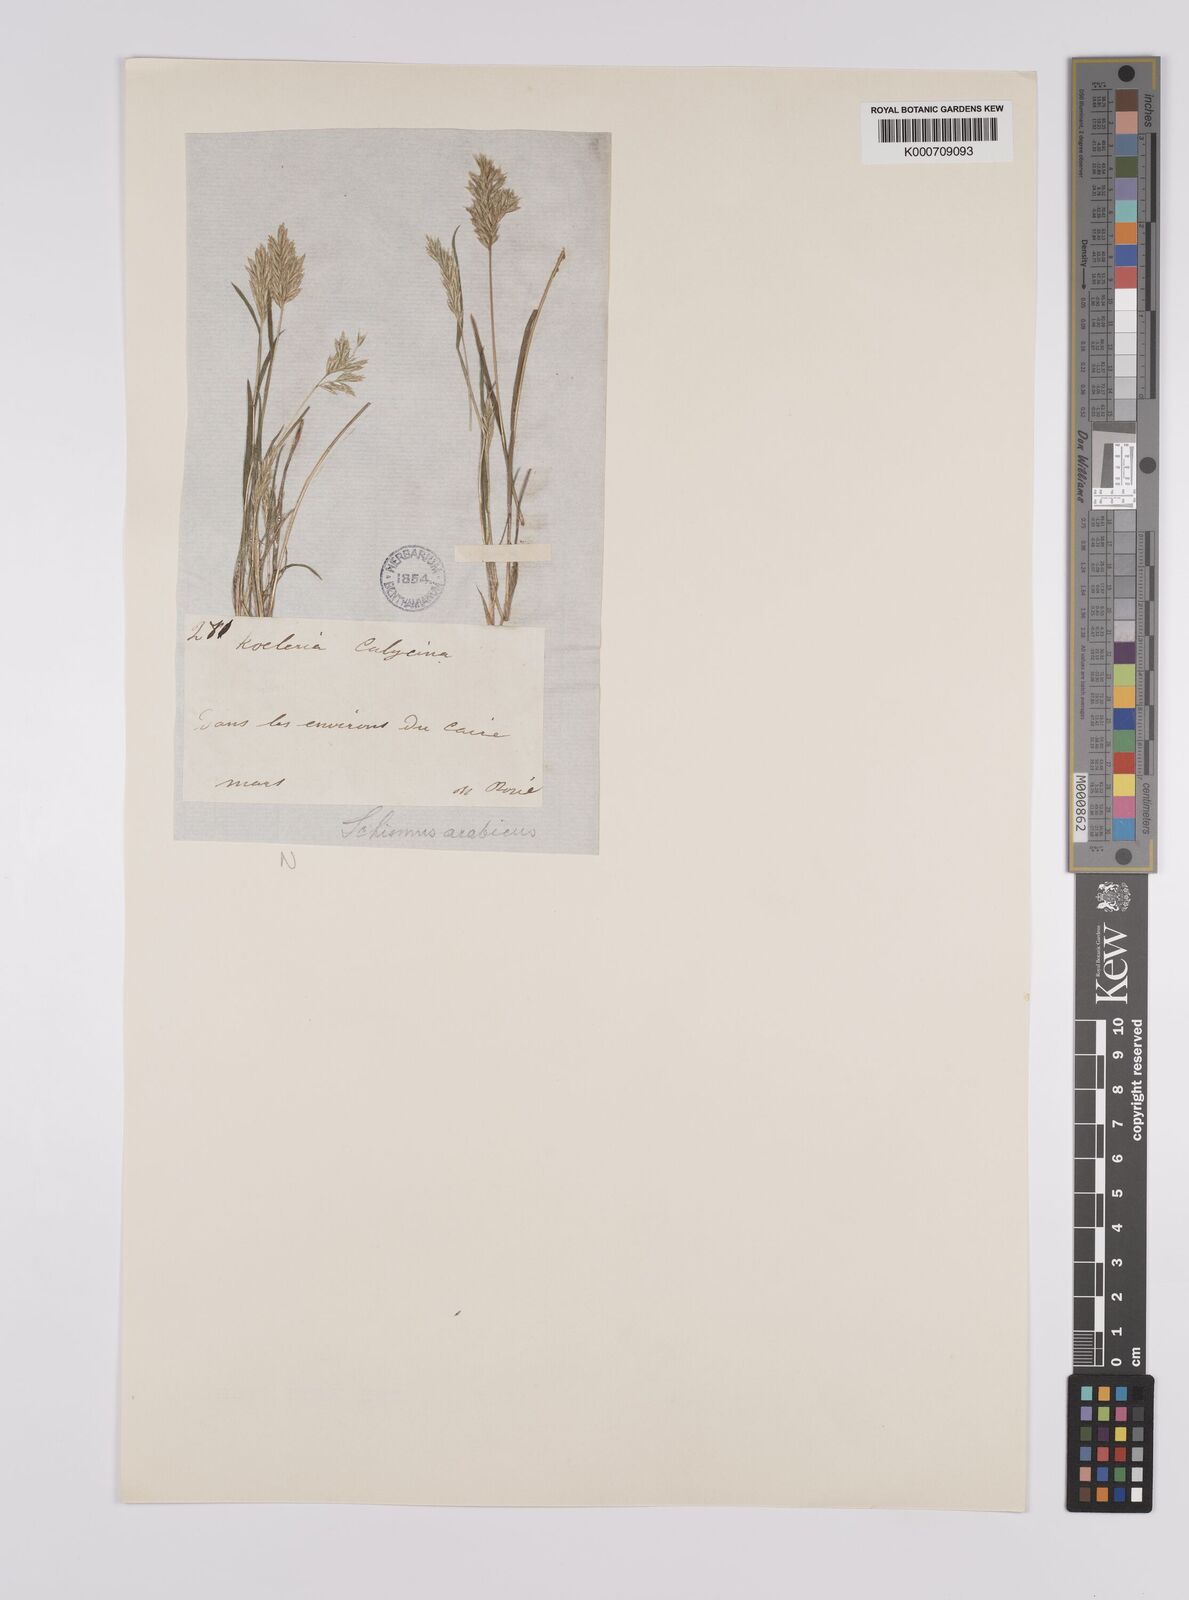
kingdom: Plantae
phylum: Tracheophyta
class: Liliopsida
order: Poales
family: Poaceae
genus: Schismus
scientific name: Schismus arabicus
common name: Arabian schismus
